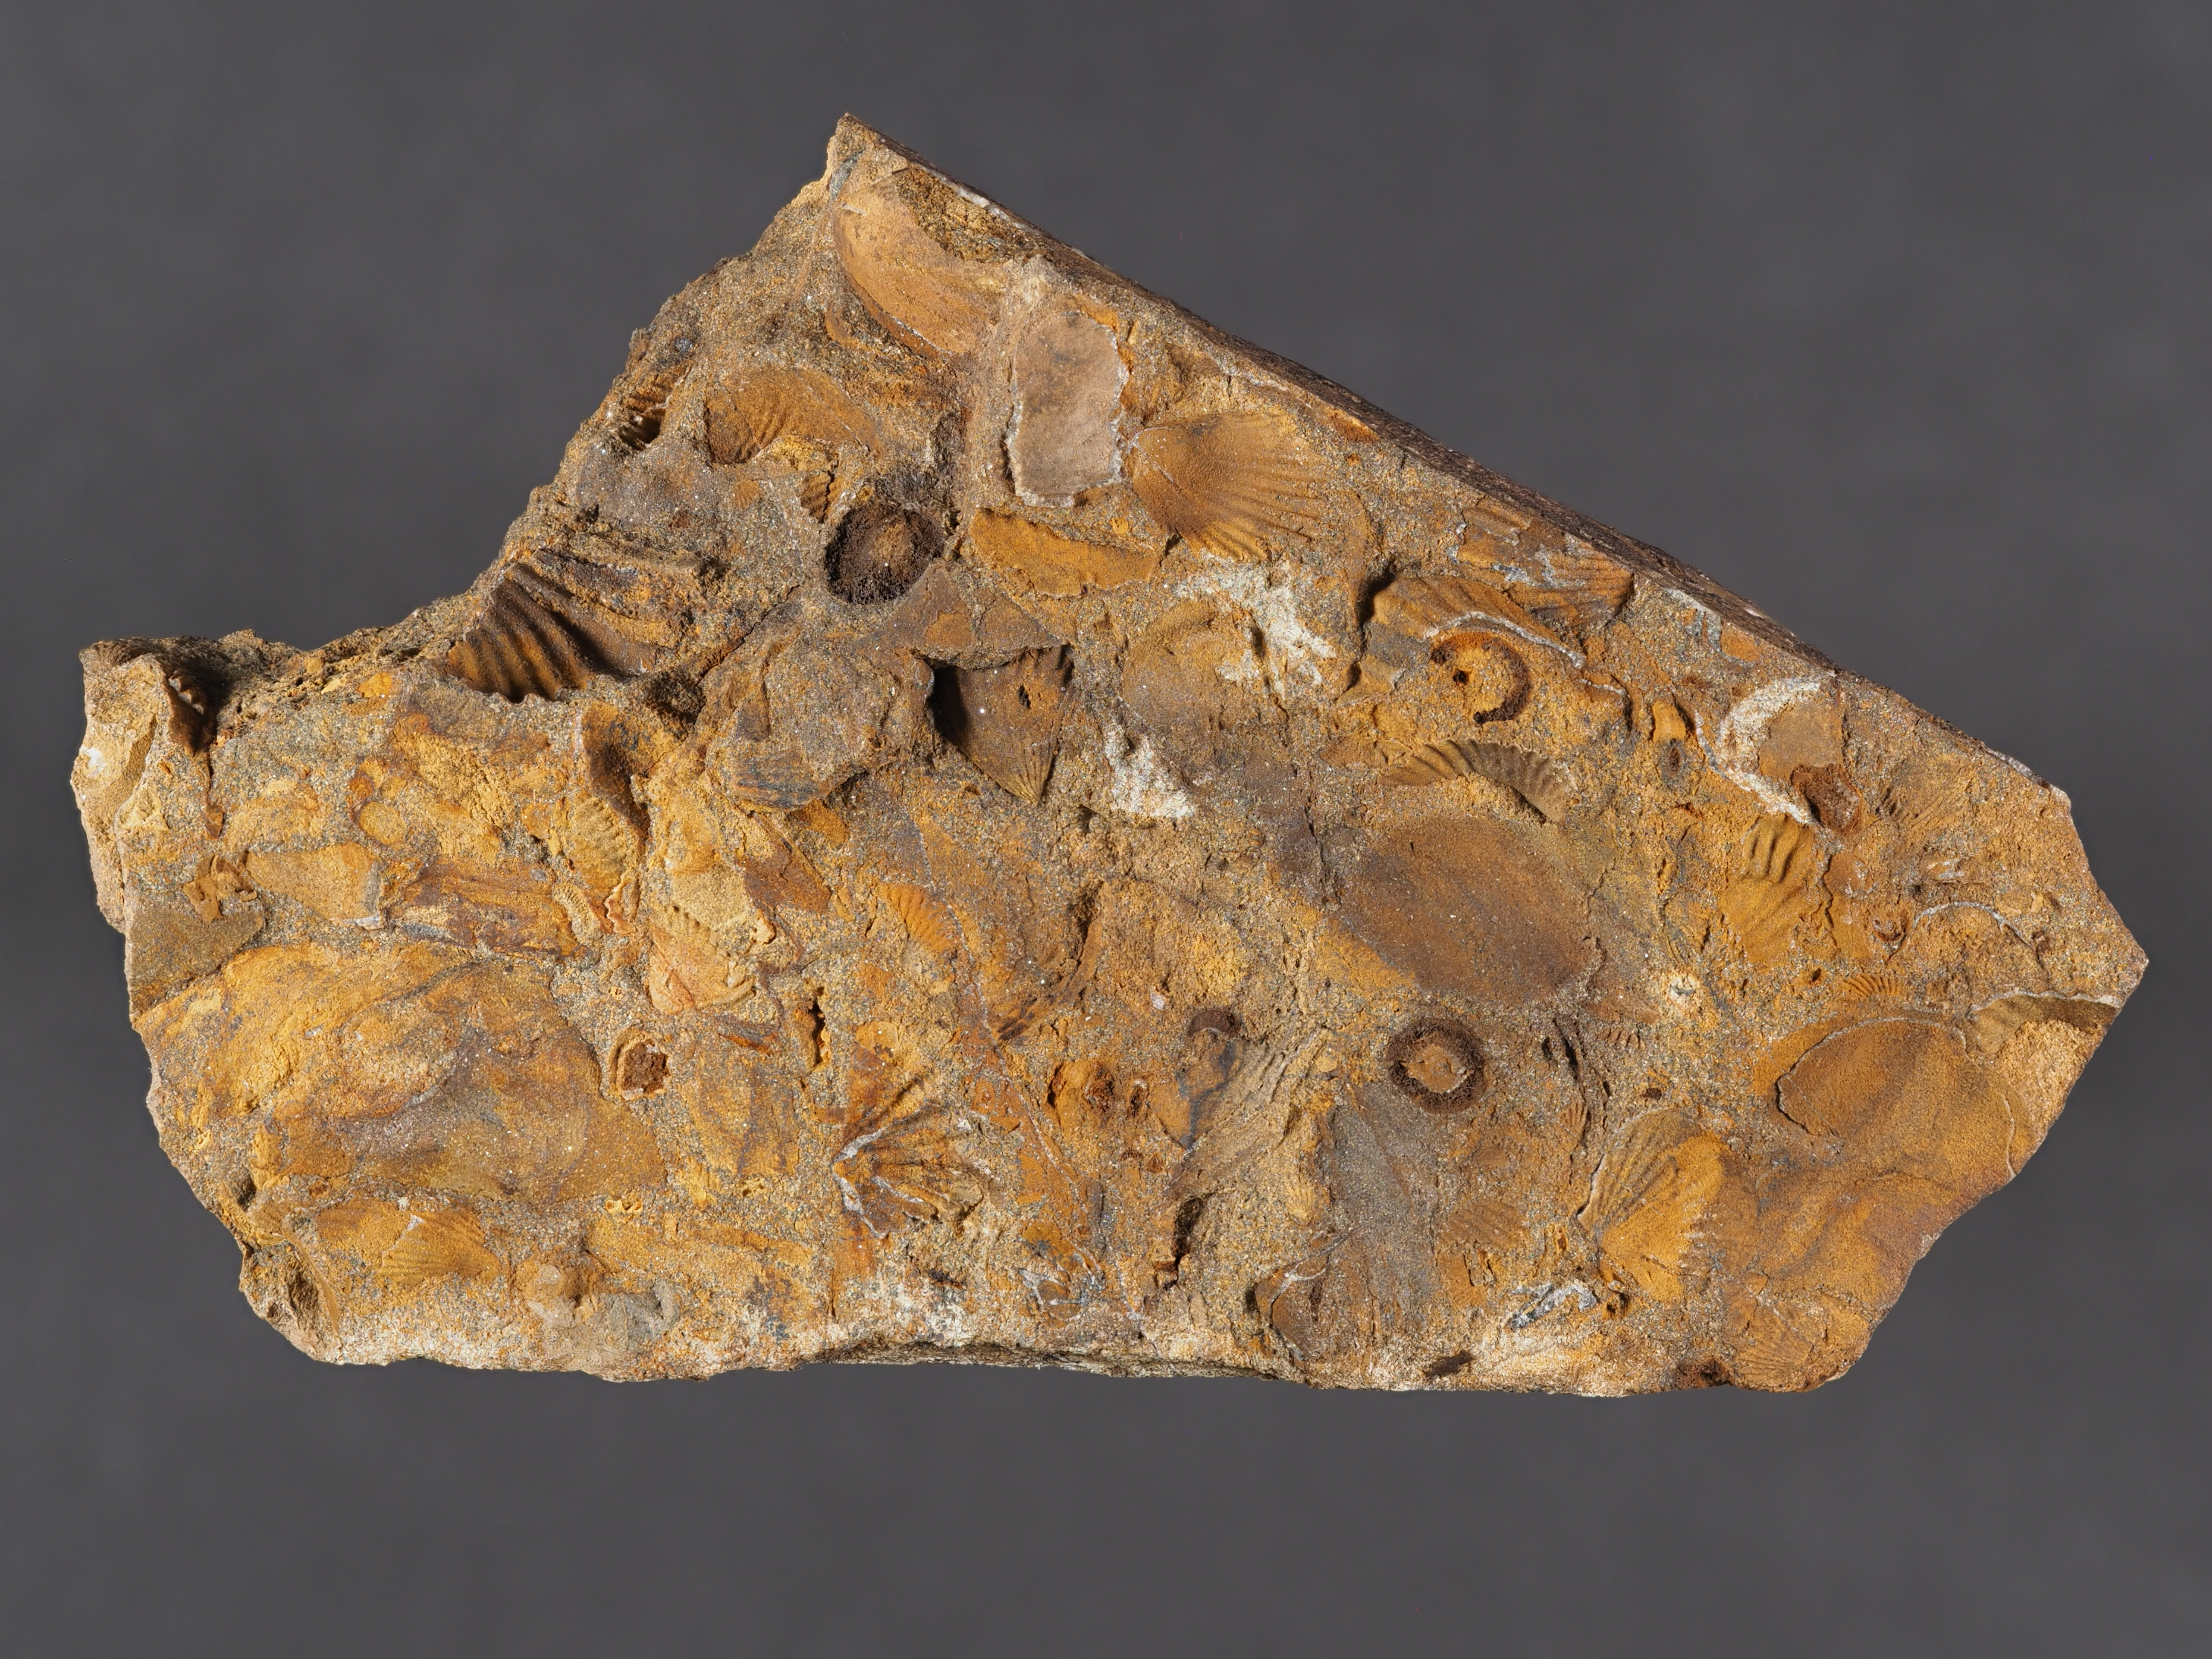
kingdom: Animalia
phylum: Arthropoda
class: Trilobita
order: Phacopida
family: Acastidae
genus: Acastava
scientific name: Acastava
